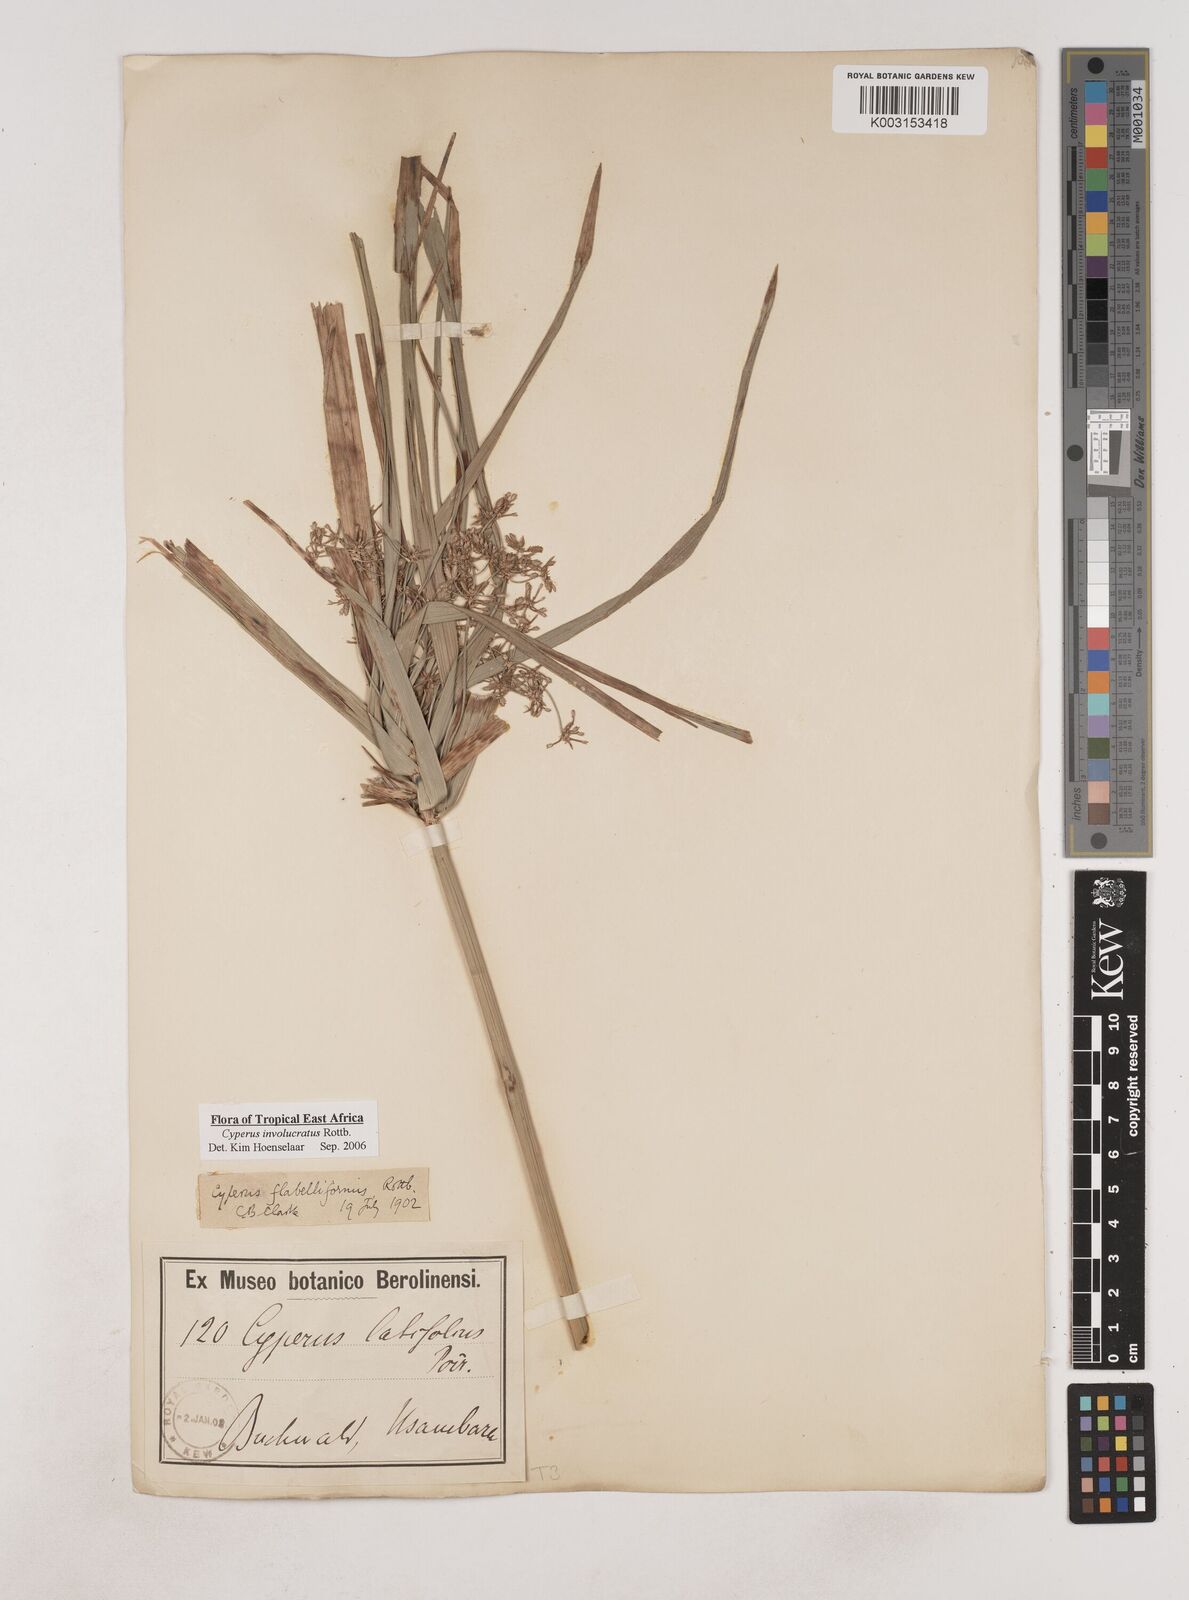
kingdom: Plantae
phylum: Tracheophyta
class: Liliopsida
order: Poales
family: Cyperaceae
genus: Cyperus
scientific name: Cyperus alternifolius
